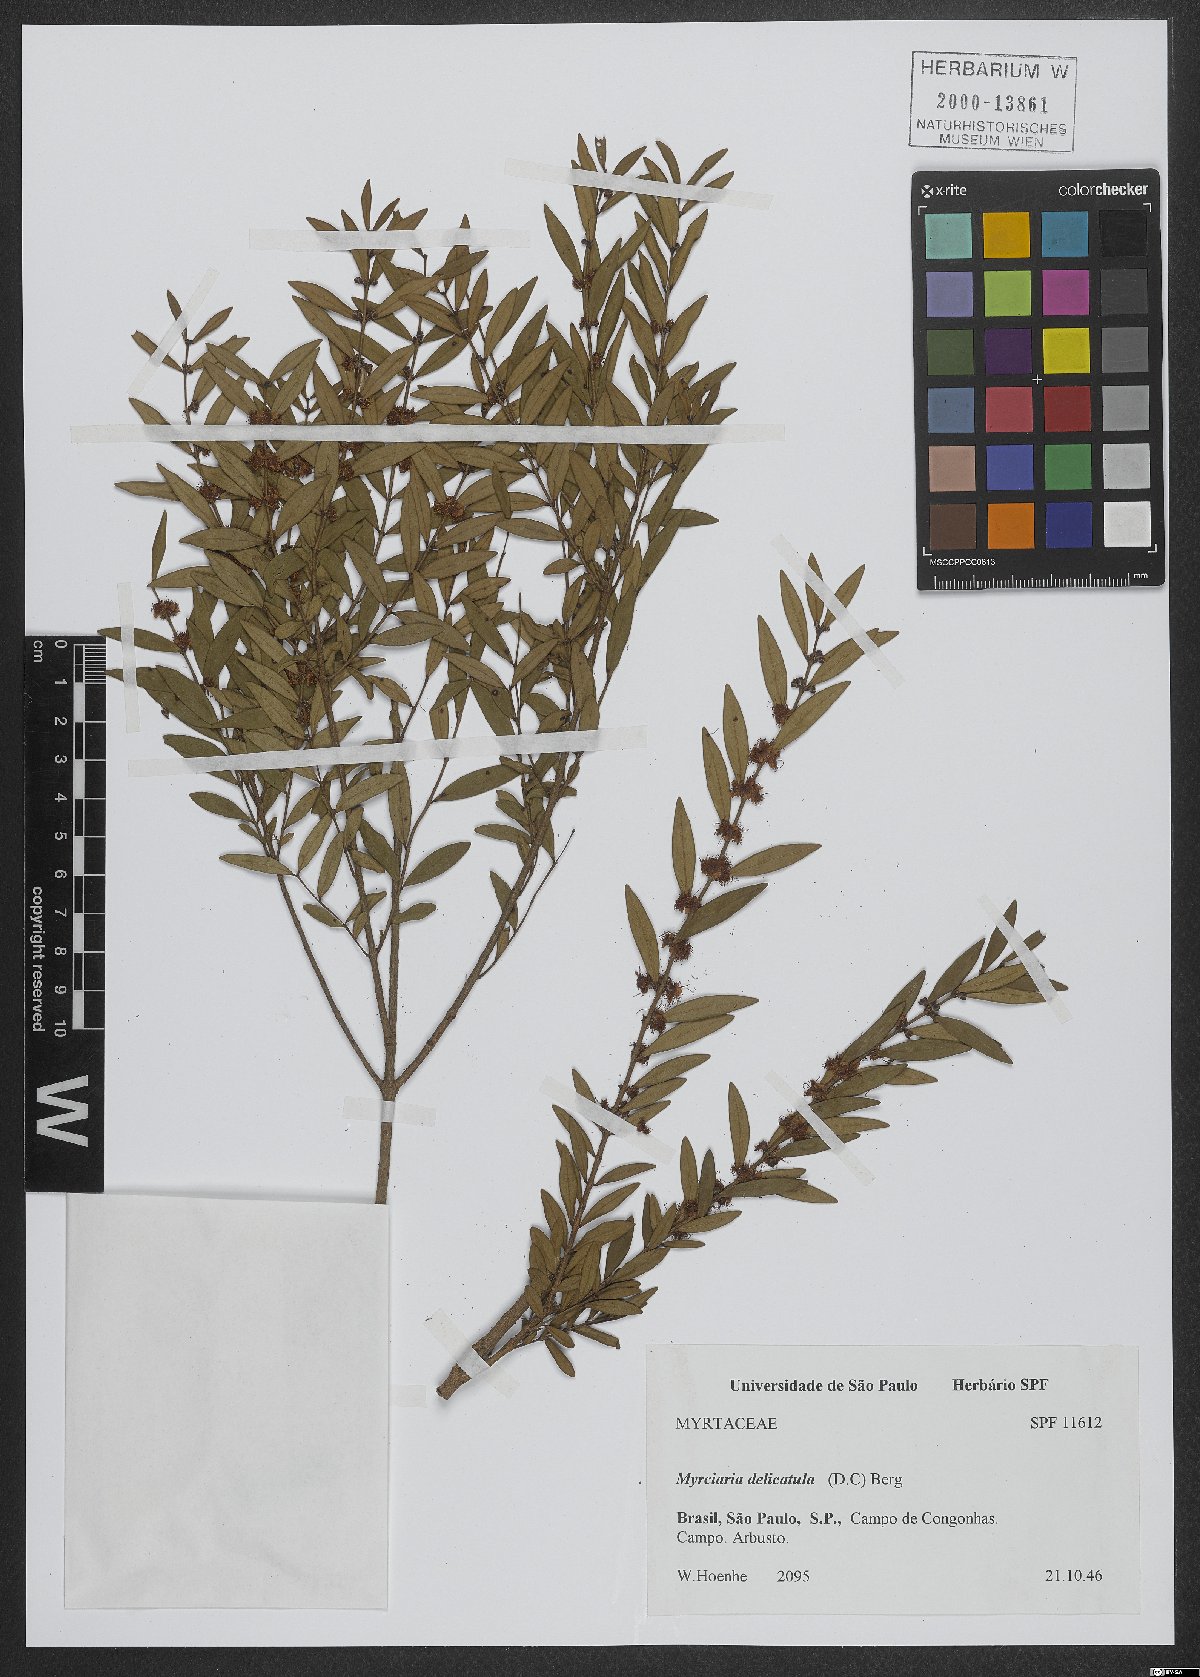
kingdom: Plantae
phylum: Tracheophyta
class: Magnoliopsida
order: Myrtales
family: Myrtaceae
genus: Myrciaria
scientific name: Myrciaria delicatula
